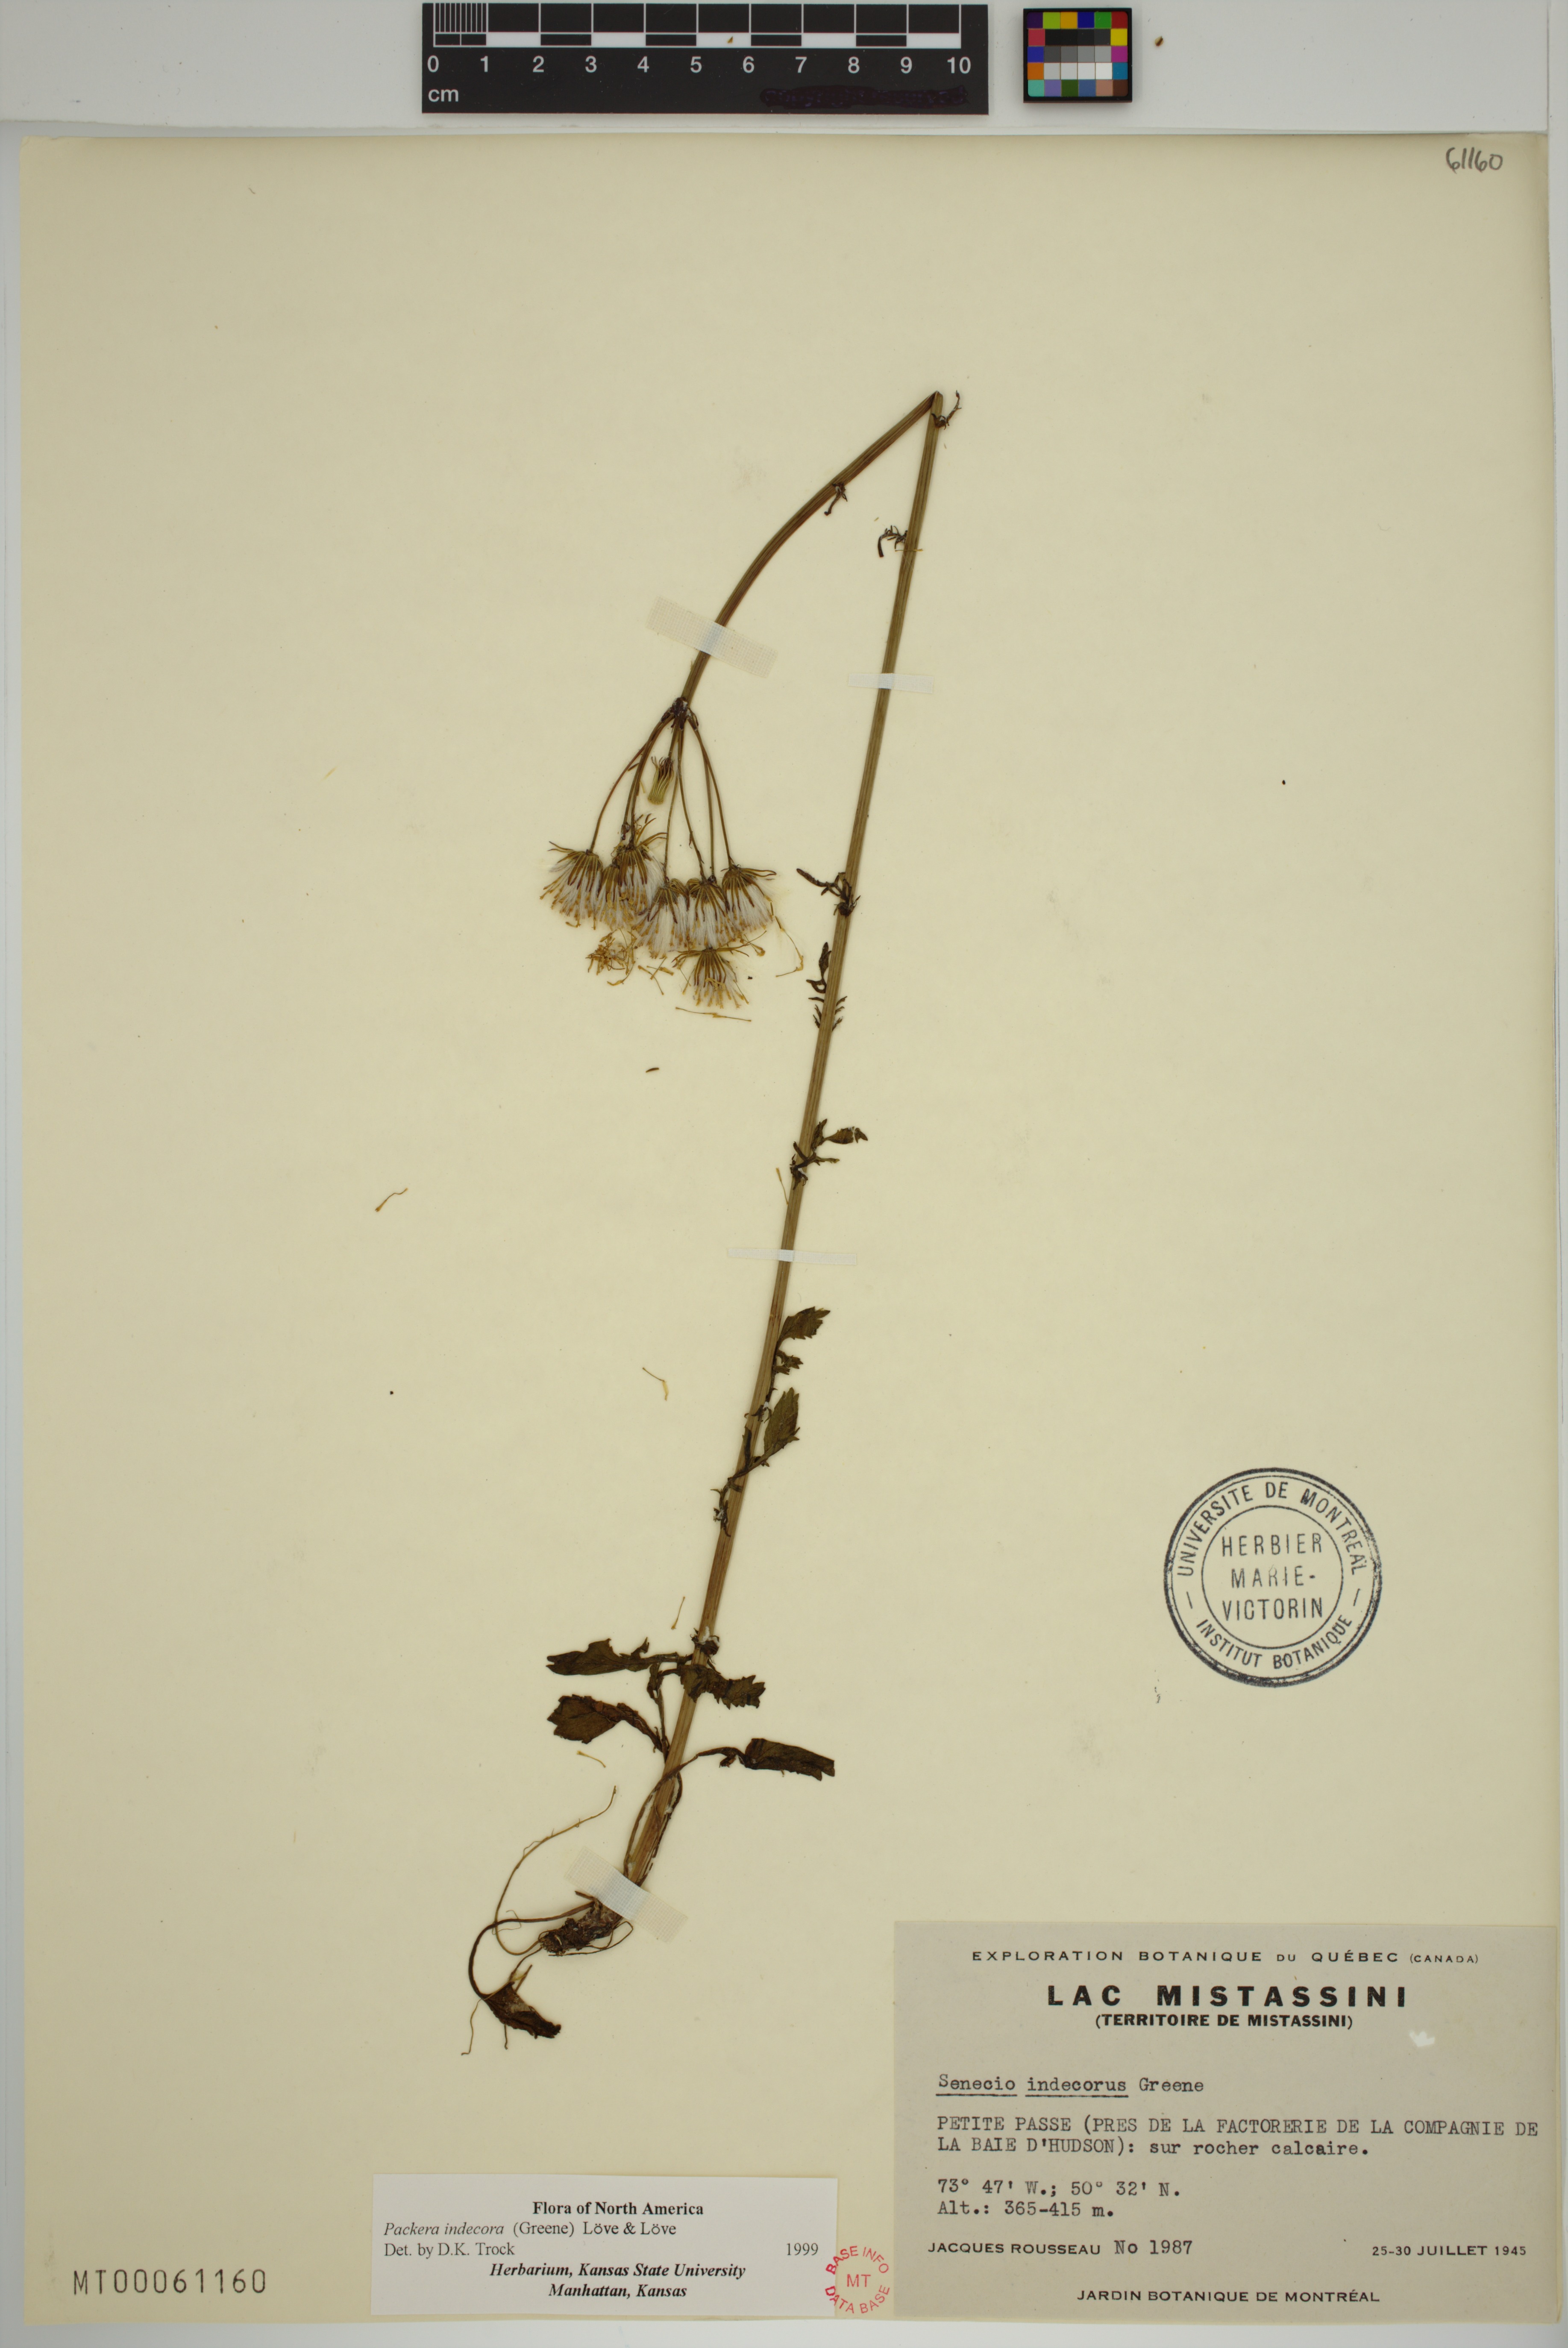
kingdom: Plantae
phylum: Tracheophyta
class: Magnoliopsida
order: Asterales
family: Asteraceae
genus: Packera
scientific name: Packera indecora
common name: Elegant groundsel
